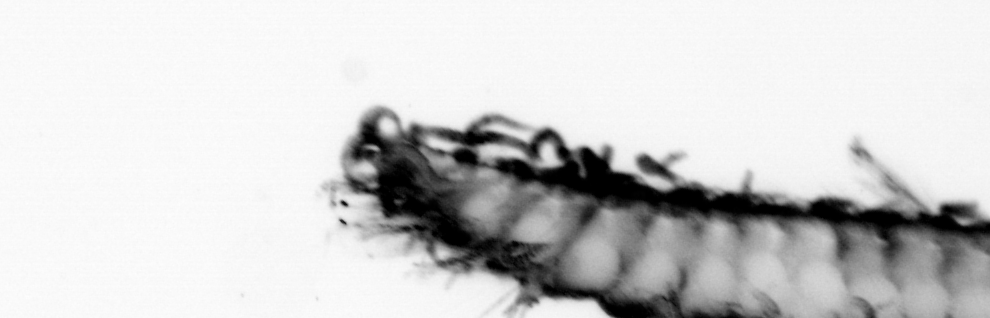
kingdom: Animalia
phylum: Annelida
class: Polychaeta
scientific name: Polychaeta
